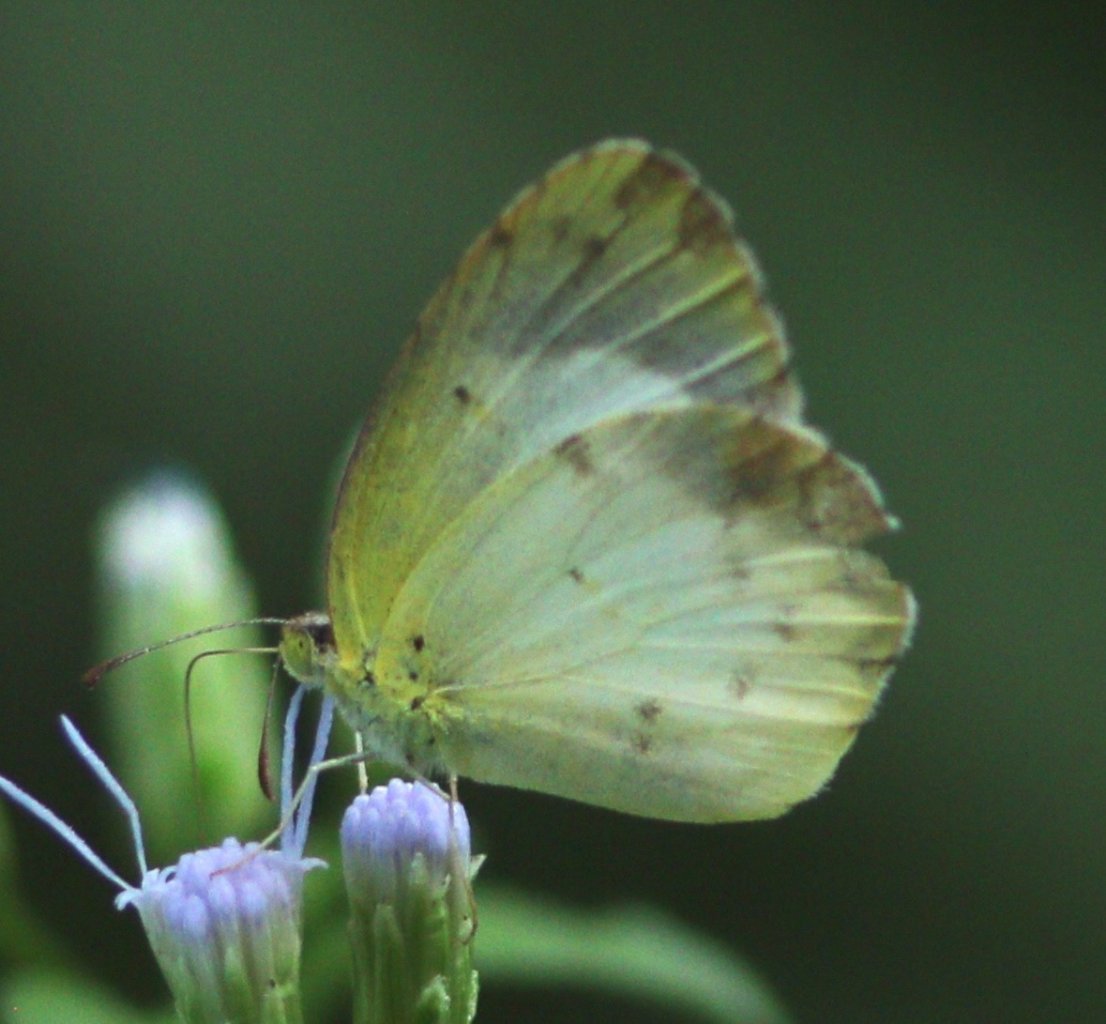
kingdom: Animalia
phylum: Arthropoda
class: Insecta
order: Lepidoptera
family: Pieridae
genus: Pyrisitia
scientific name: Pyrisitia lisa
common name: Little Yellow
